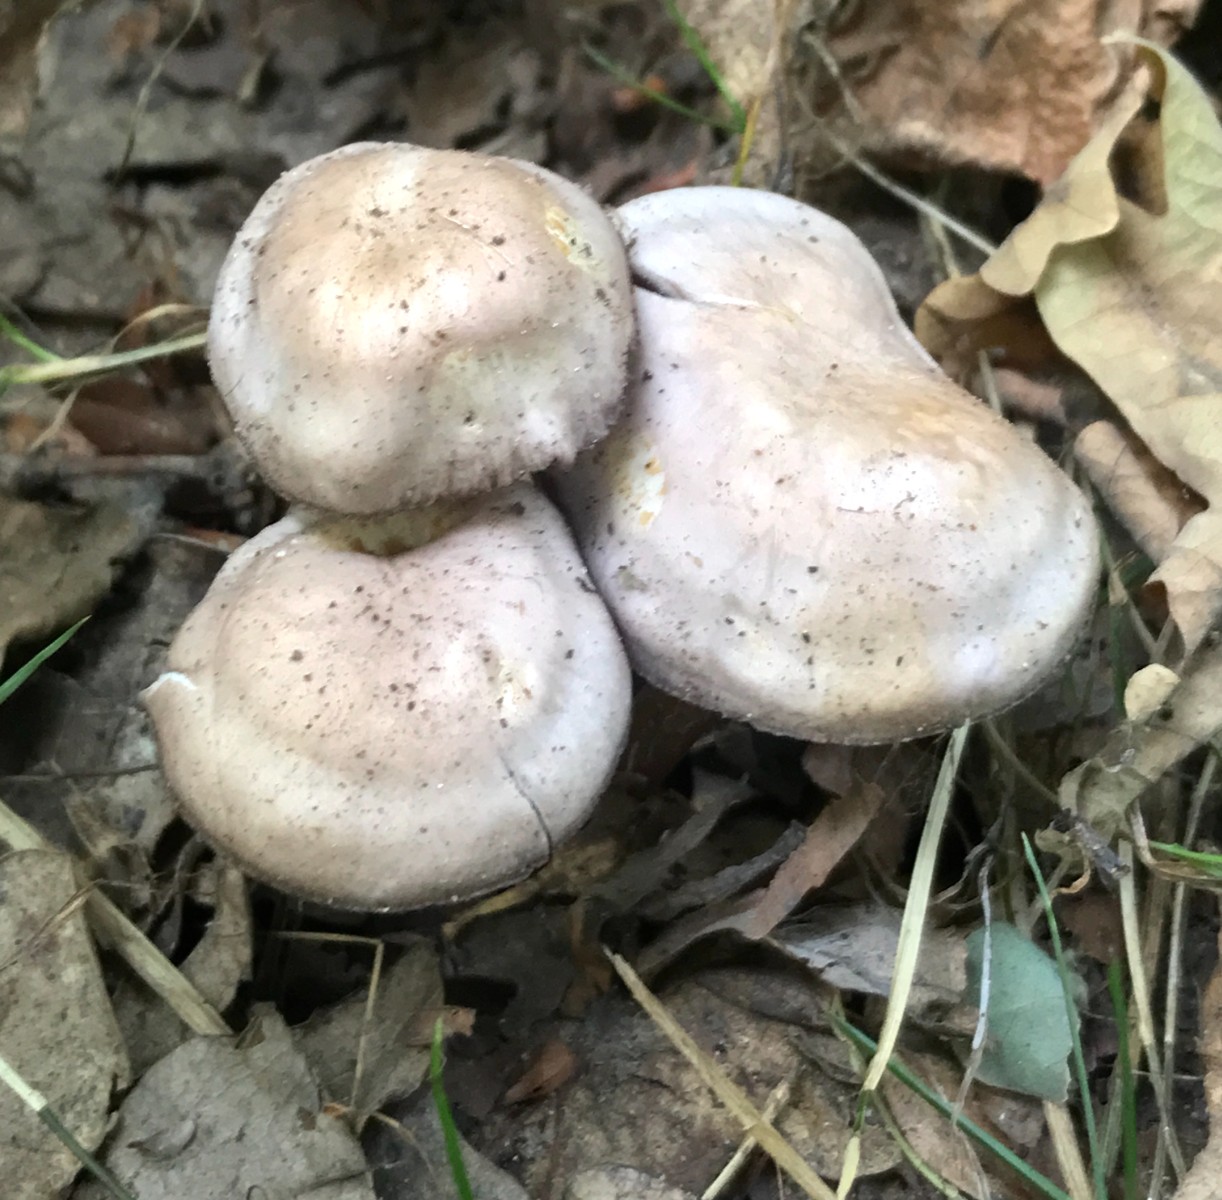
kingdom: Fungi
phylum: Basidiomycota
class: Agaricomycetes
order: Agaricales
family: Mycenaceae
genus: Mycena
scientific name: Mycena pelianthina
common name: mørkbladet huesvamp
